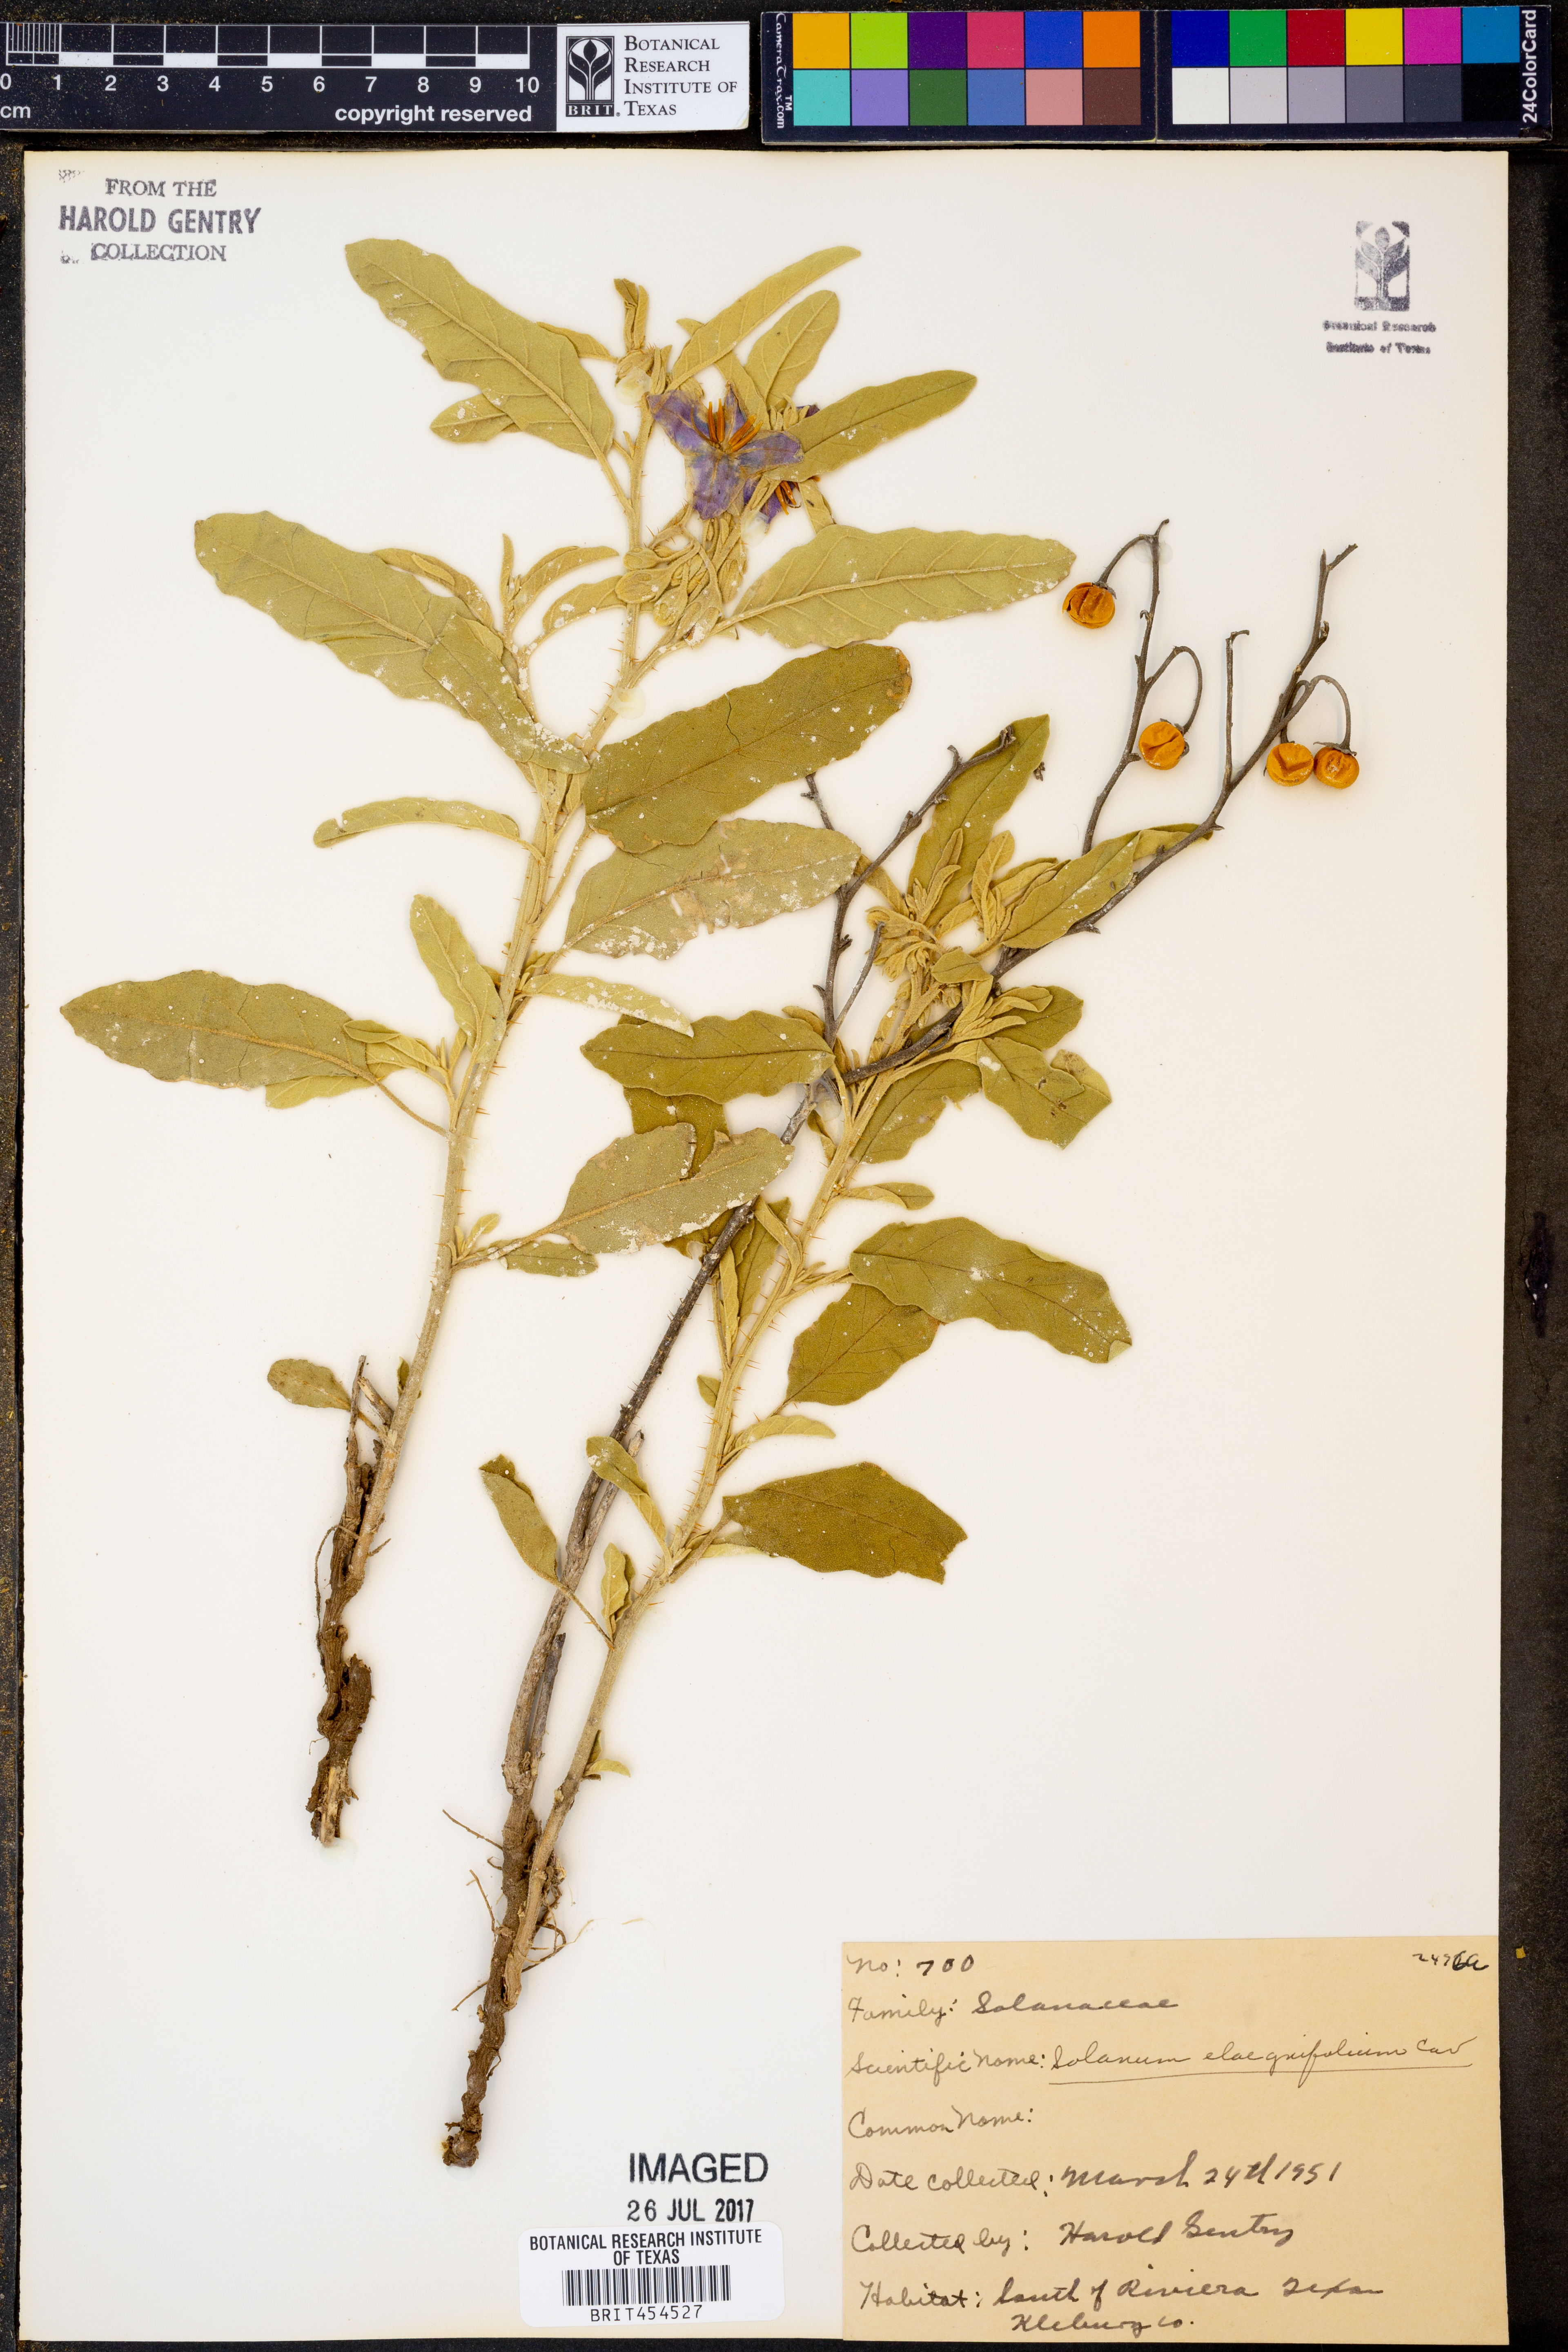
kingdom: Plantae
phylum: Tracheophyta
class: Magnoliopsida
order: Solanales
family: Solanaceae
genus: Solanum
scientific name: Solanum elaeagnifolium
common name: Silverleaf nightshade
